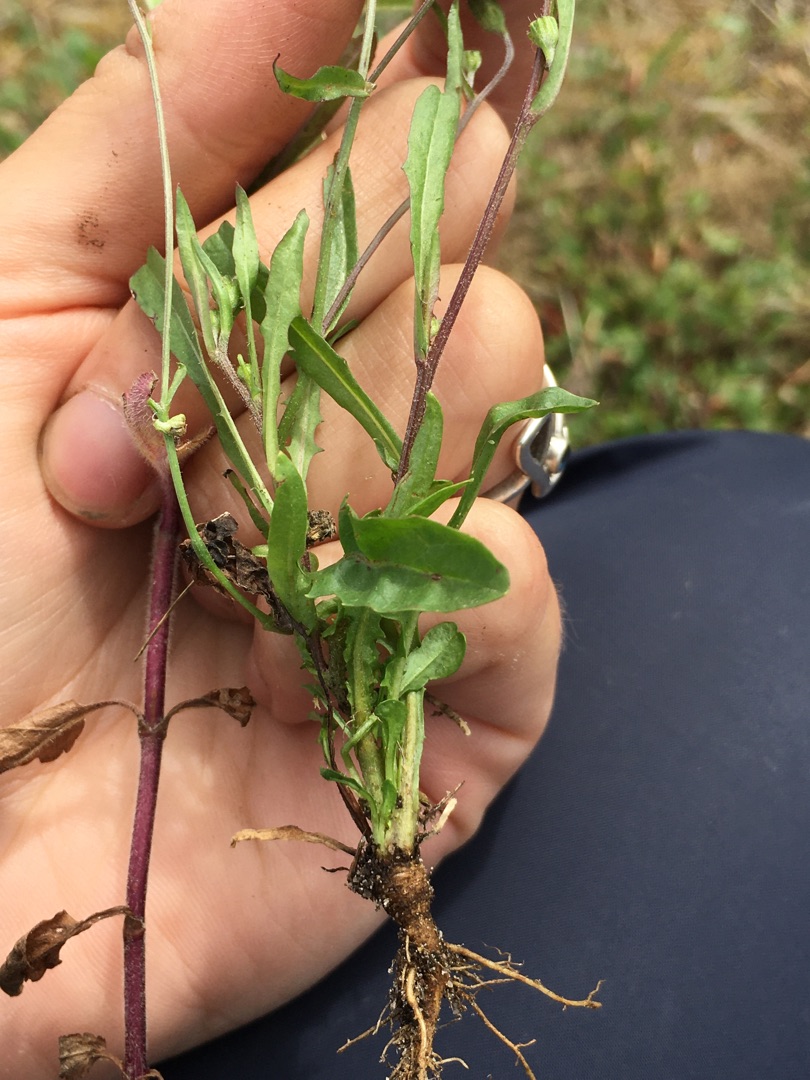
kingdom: Plantae
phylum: Tracheophyta
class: Magnoliopsida
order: Asterales
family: Asteraceae
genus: Crepis
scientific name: Crepis capillaris
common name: Grøn høgeskæg
